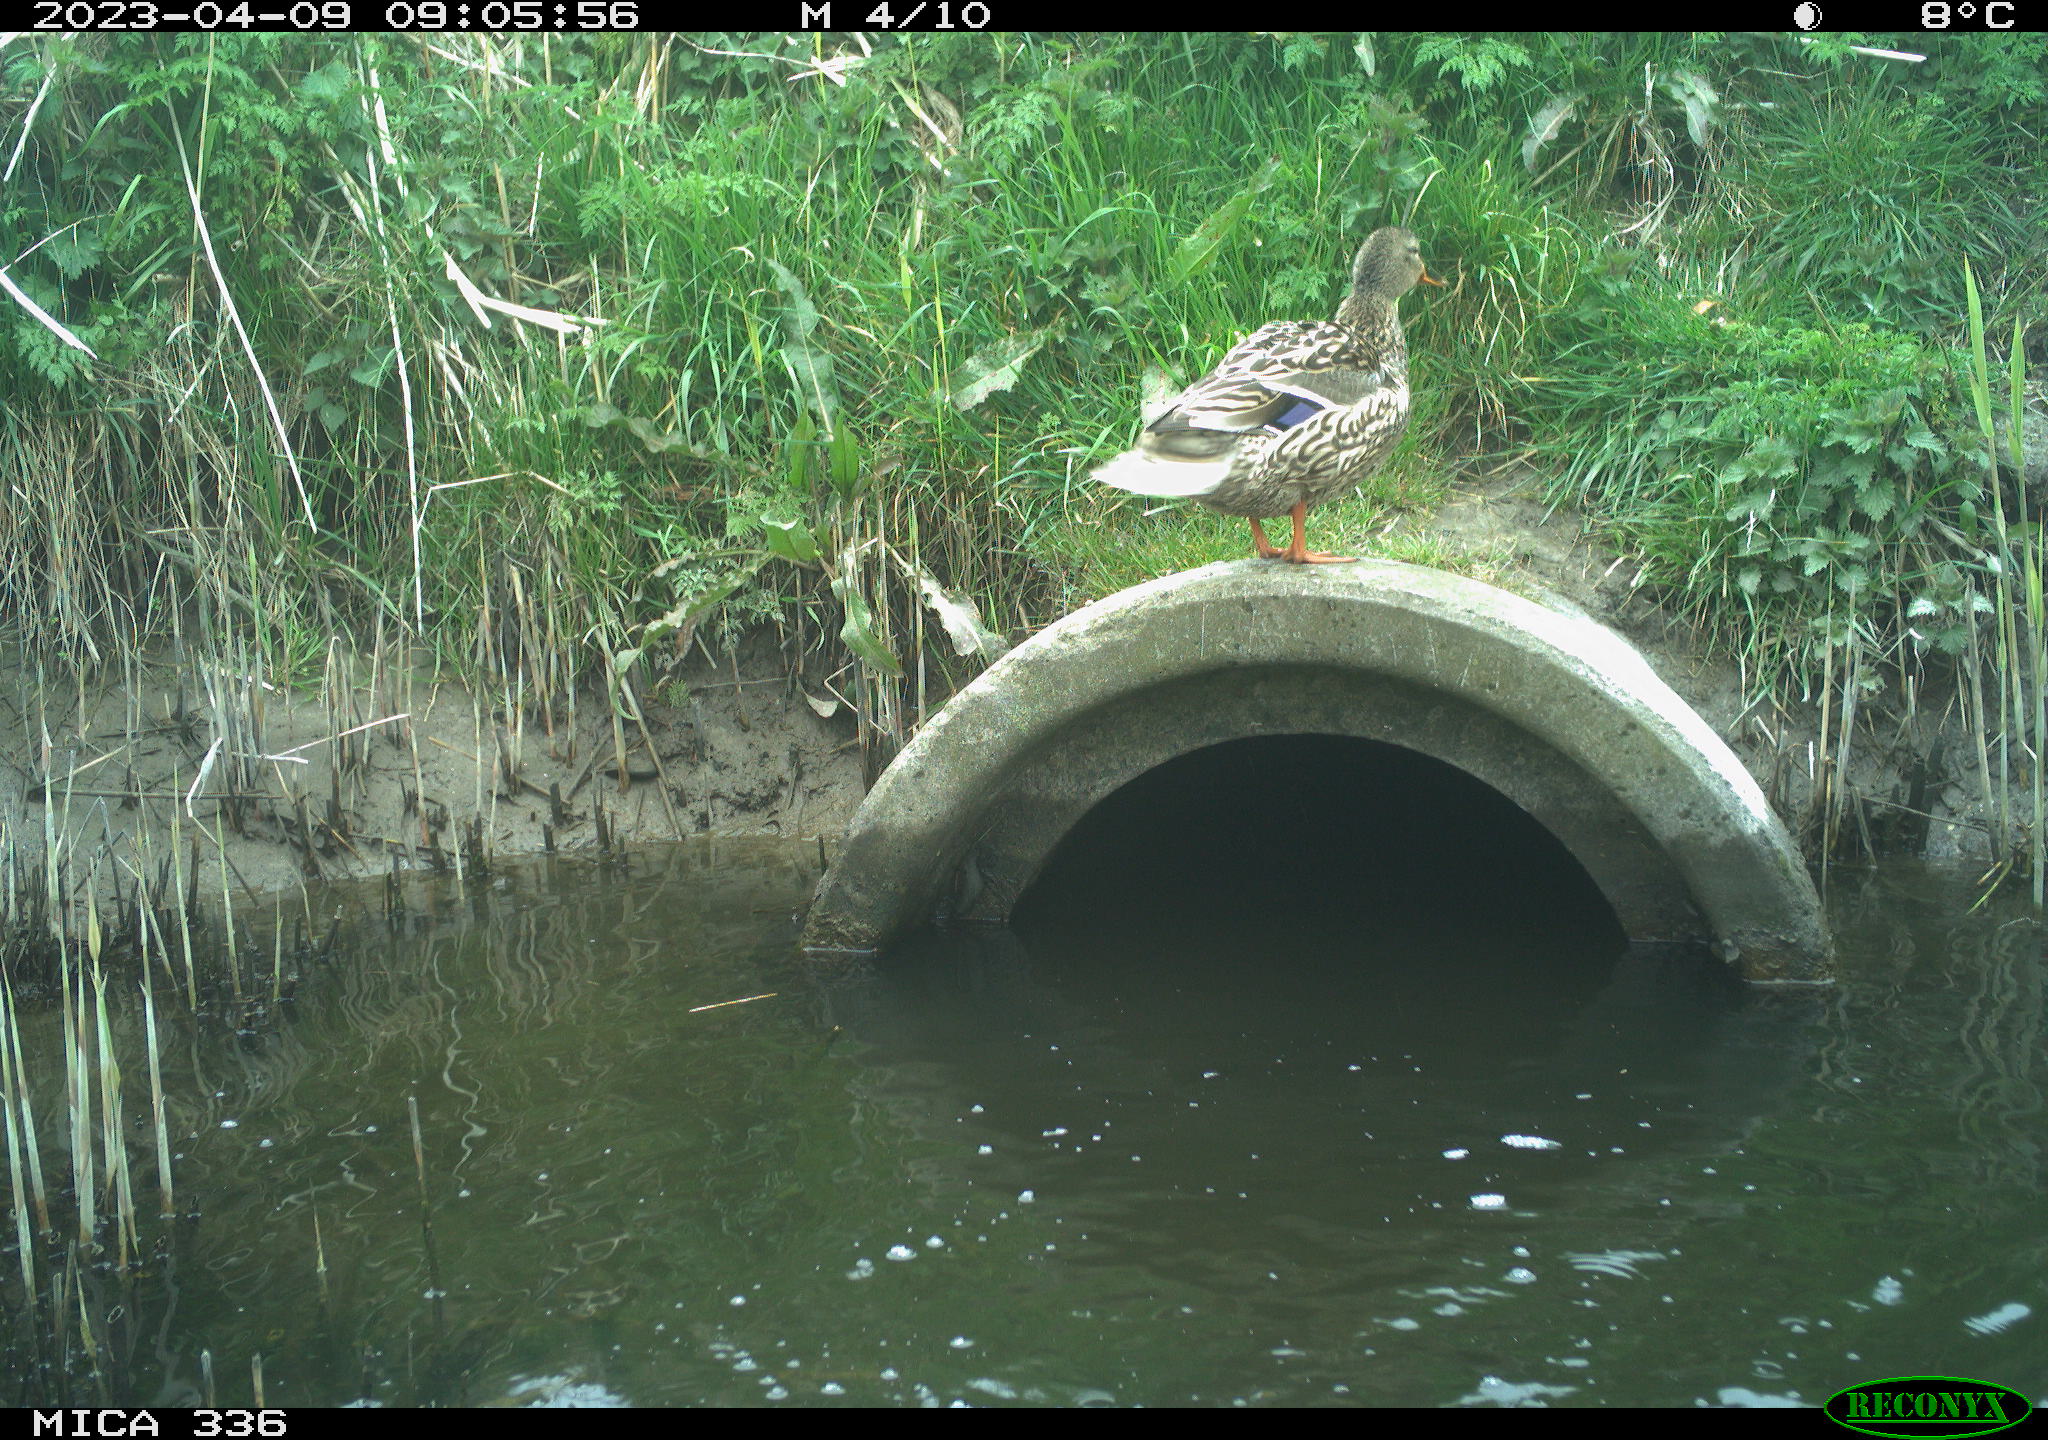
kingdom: Animalia
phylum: Chordata
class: Aves
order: Anseriformes
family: Anatidae
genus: Anas
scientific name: Anas
